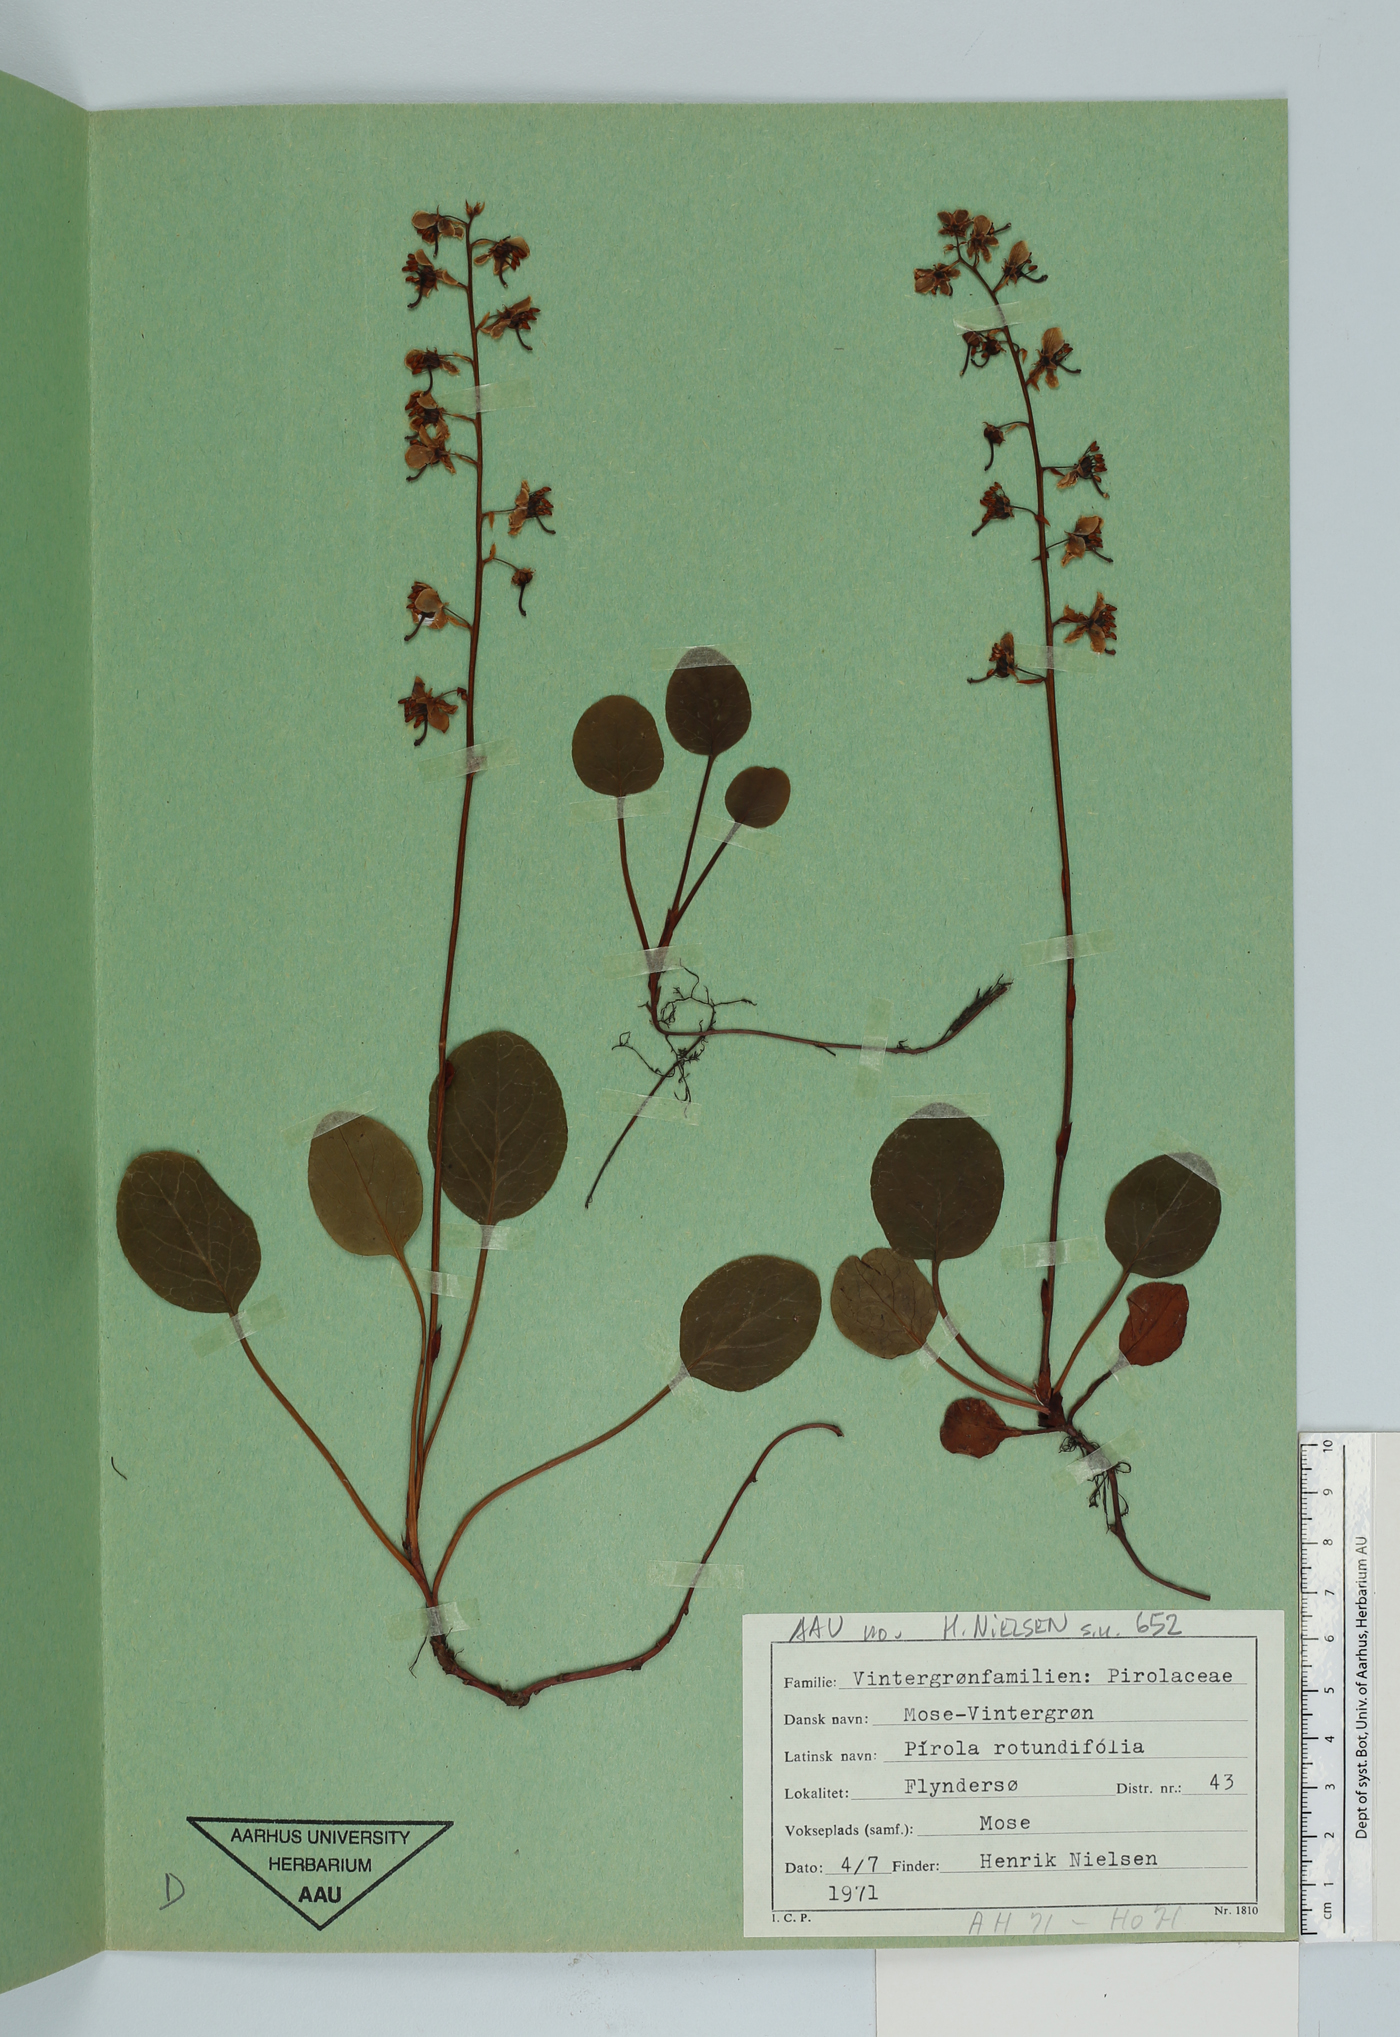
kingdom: Plantae
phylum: Tracheophyta
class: Magnoliopsida
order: Ericales
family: Ericaceae
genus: Pyrola
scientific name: Pyrola rotundifolia
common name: Round-leaved wintergreen
